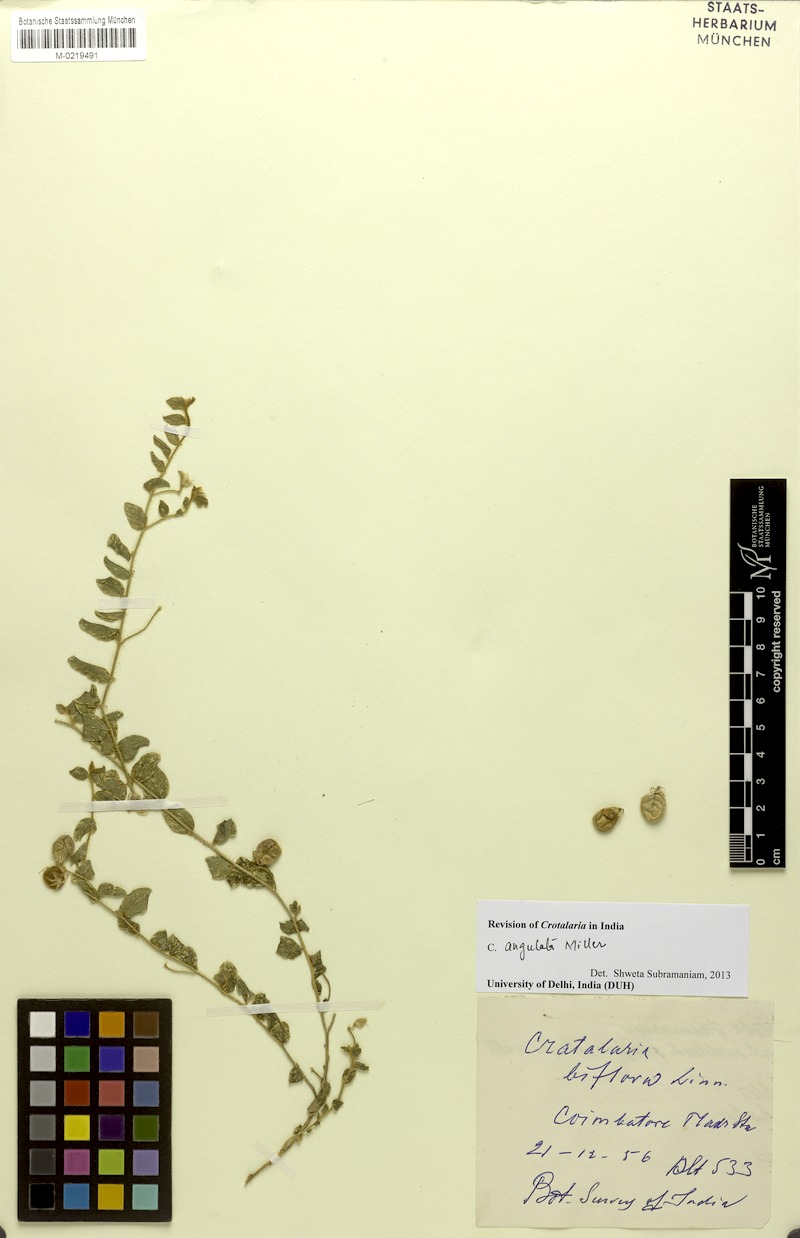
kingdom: Plantae
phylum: Tracheophyta
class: Magnoliopsida
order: Fabales
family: Fabaceae
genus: Crotalaria
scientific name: Crotalaria angulata
